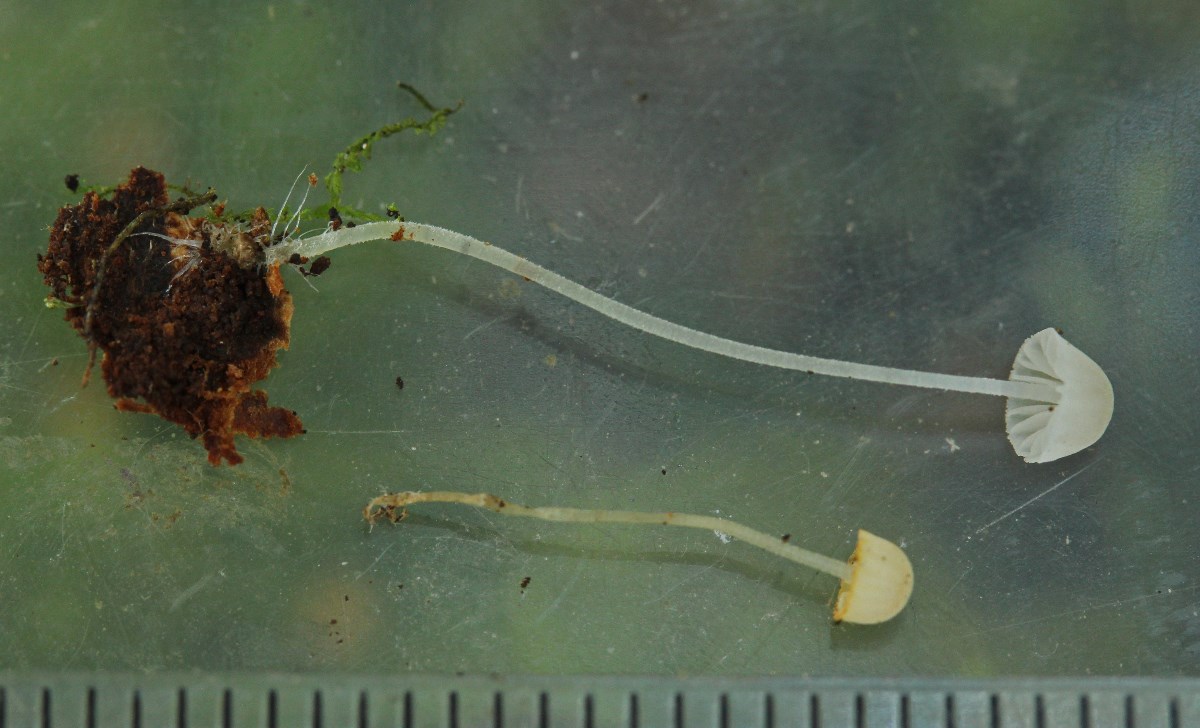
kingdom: Fungi
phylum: Basidiomycota
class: Agaricomycetes
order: Agaricales
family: Mycenaceae
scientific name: Mycenaceae
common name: huesvampfamilien
